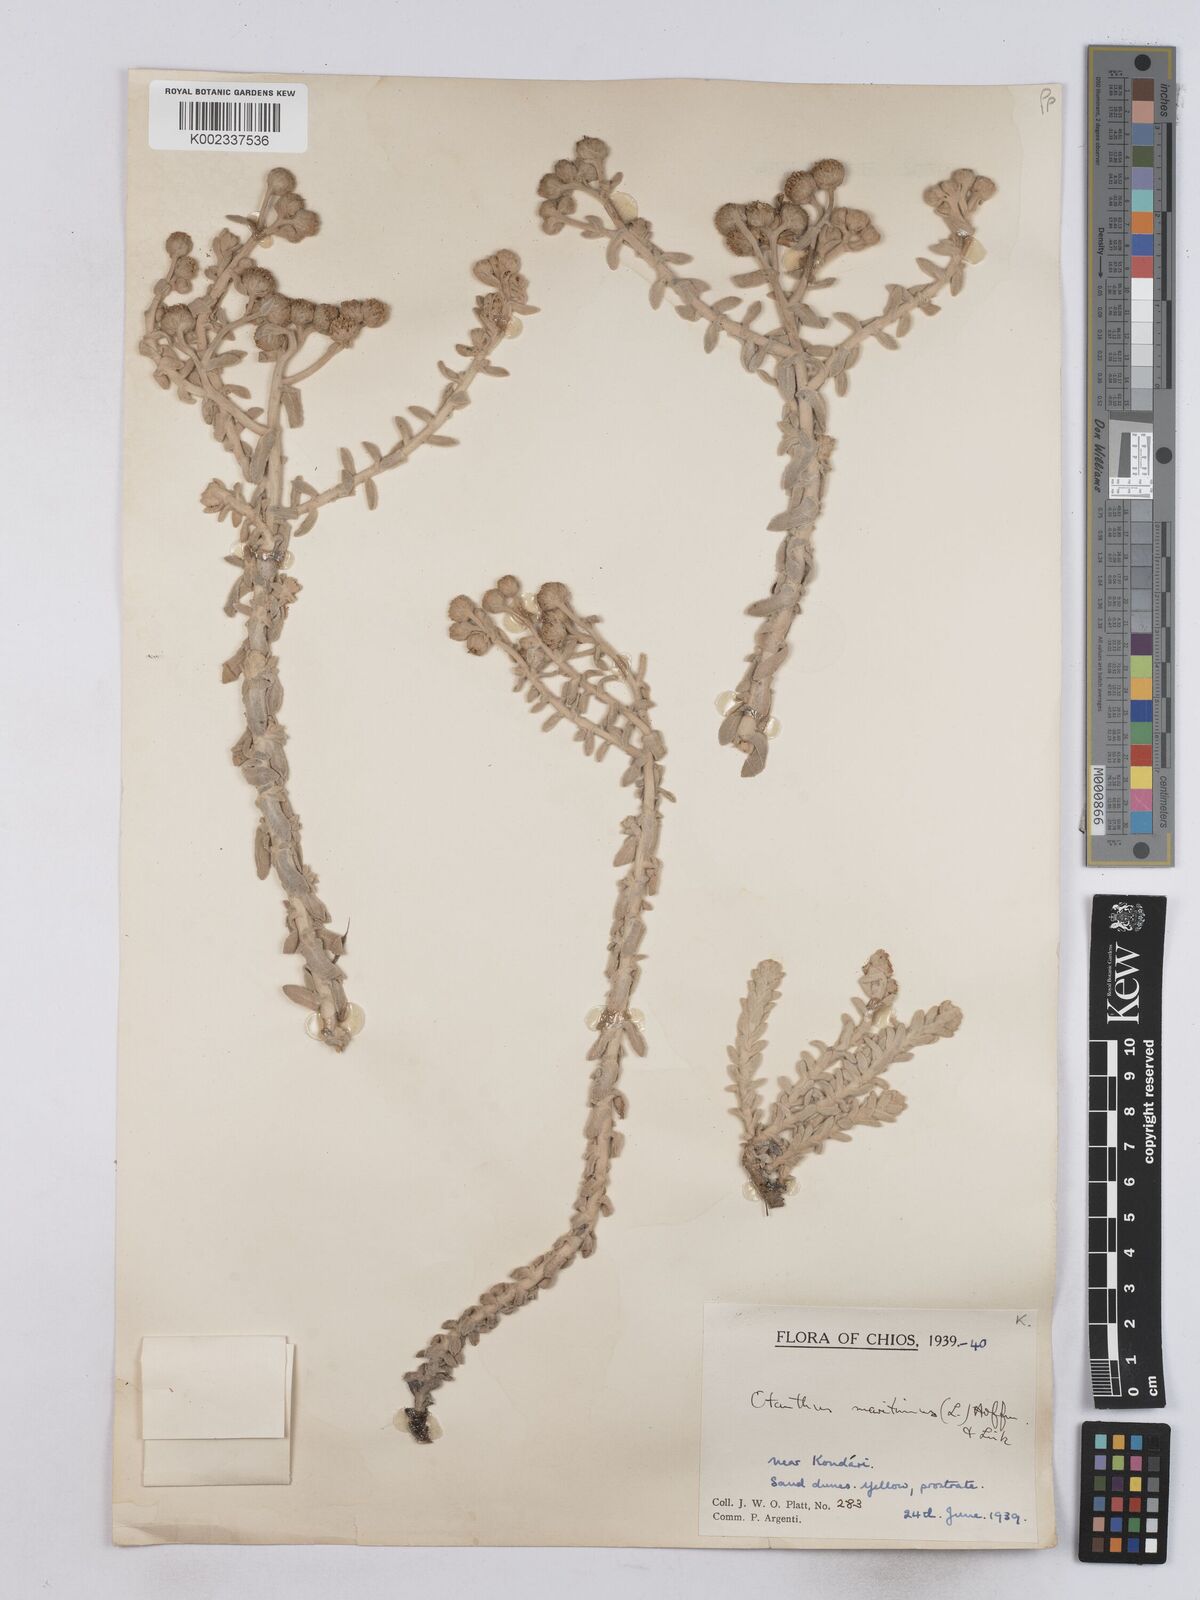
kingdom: Plantae
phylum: Tracheophyta
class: Magnoliopsida
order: Asterales
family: Asteraceae
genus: Achillea
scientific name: Achillea maritima
